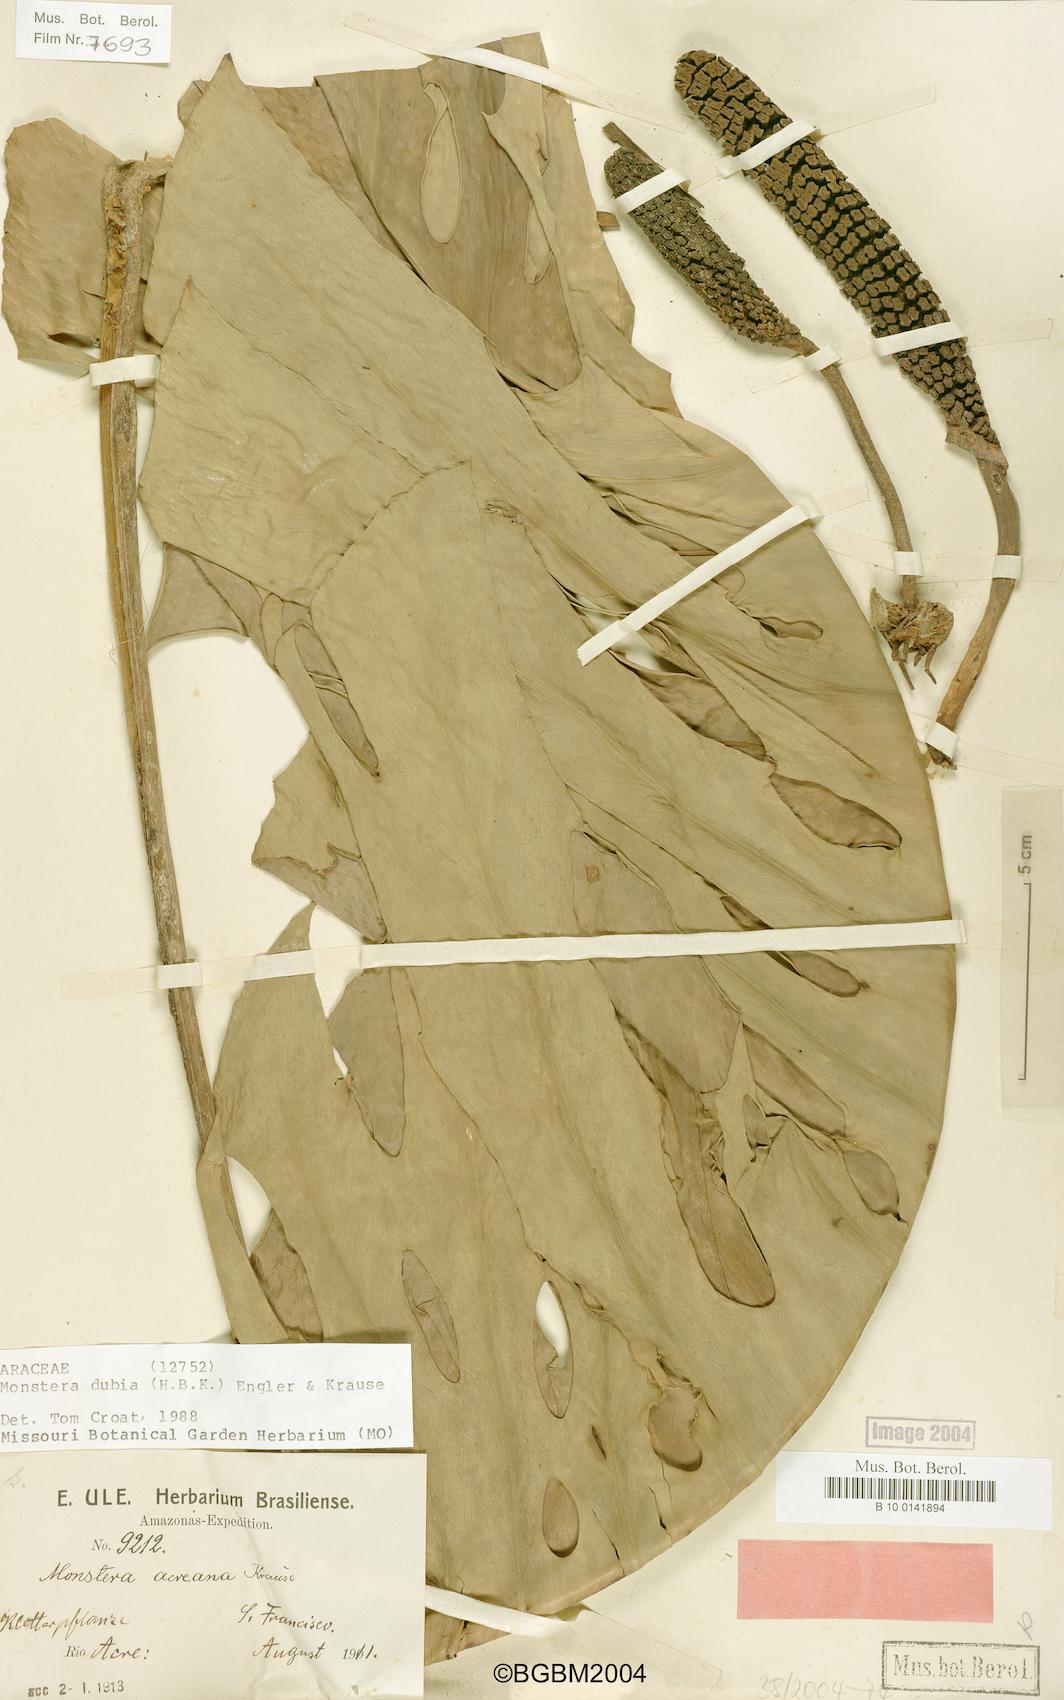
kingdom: Plantae
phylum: Tracheophyta
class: Liliopsida
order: Alismatales
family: Araceae
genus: Monstera
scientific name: Monstera dubia
